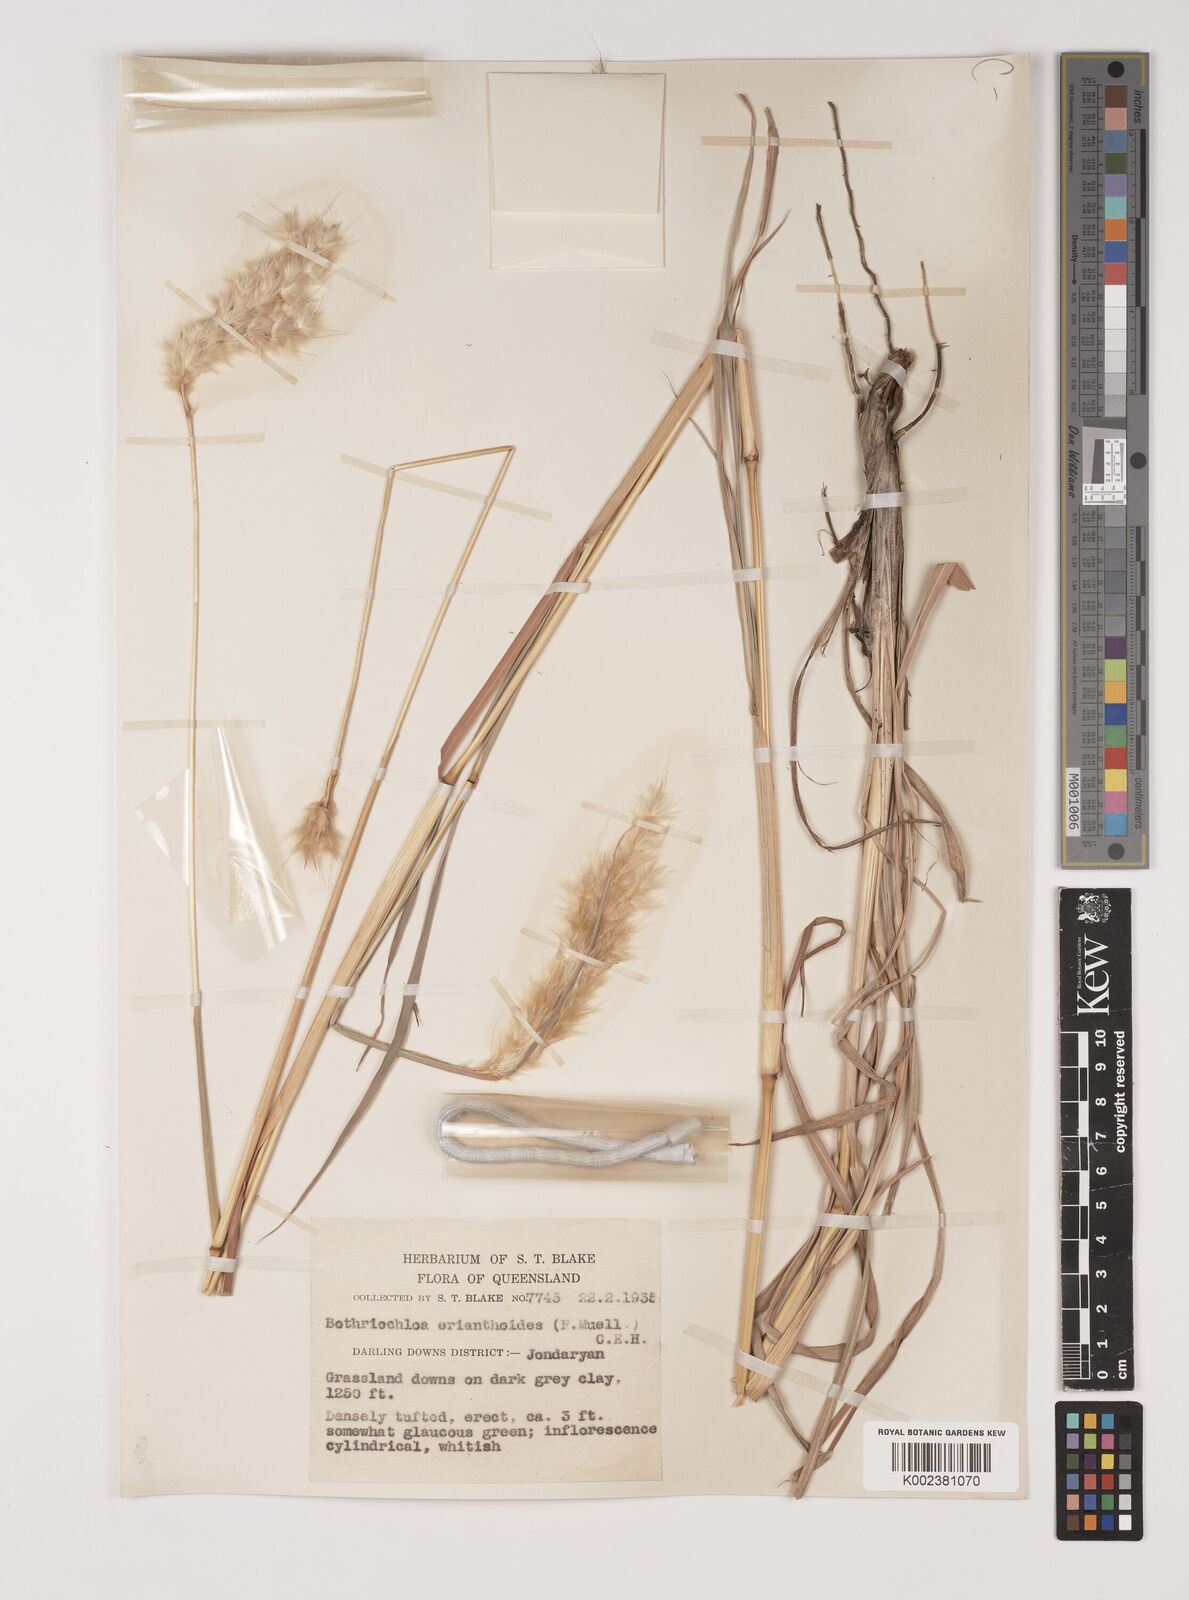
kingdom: Plantae
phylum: Tracheophyta
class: Liliopsida
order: Poales
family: Poaceae
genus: Bothriochloa
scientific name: Bothriochloa erianthoides
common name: Satin-top grass
